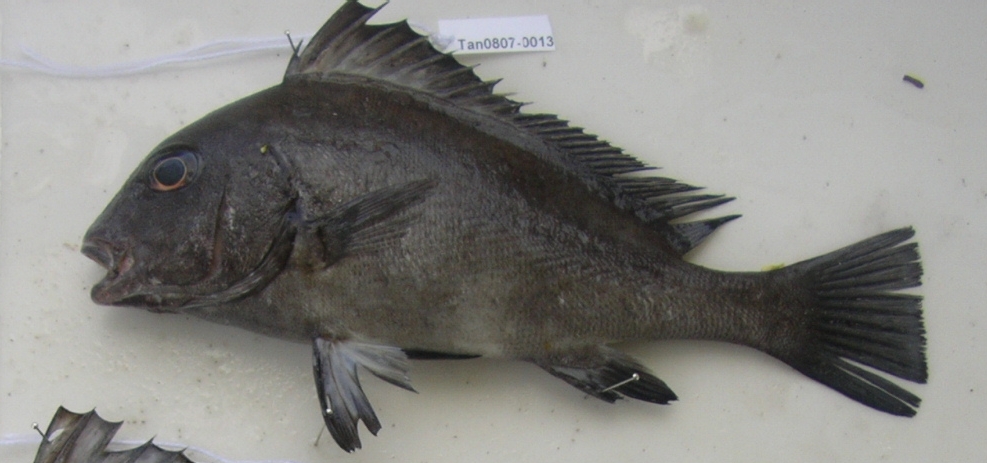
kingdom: Animalia
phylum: Chordata
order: Perciformes
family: Haemulidae
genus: Diagramma
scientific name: Diagramma centurio
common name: Sailfin rubberlip
